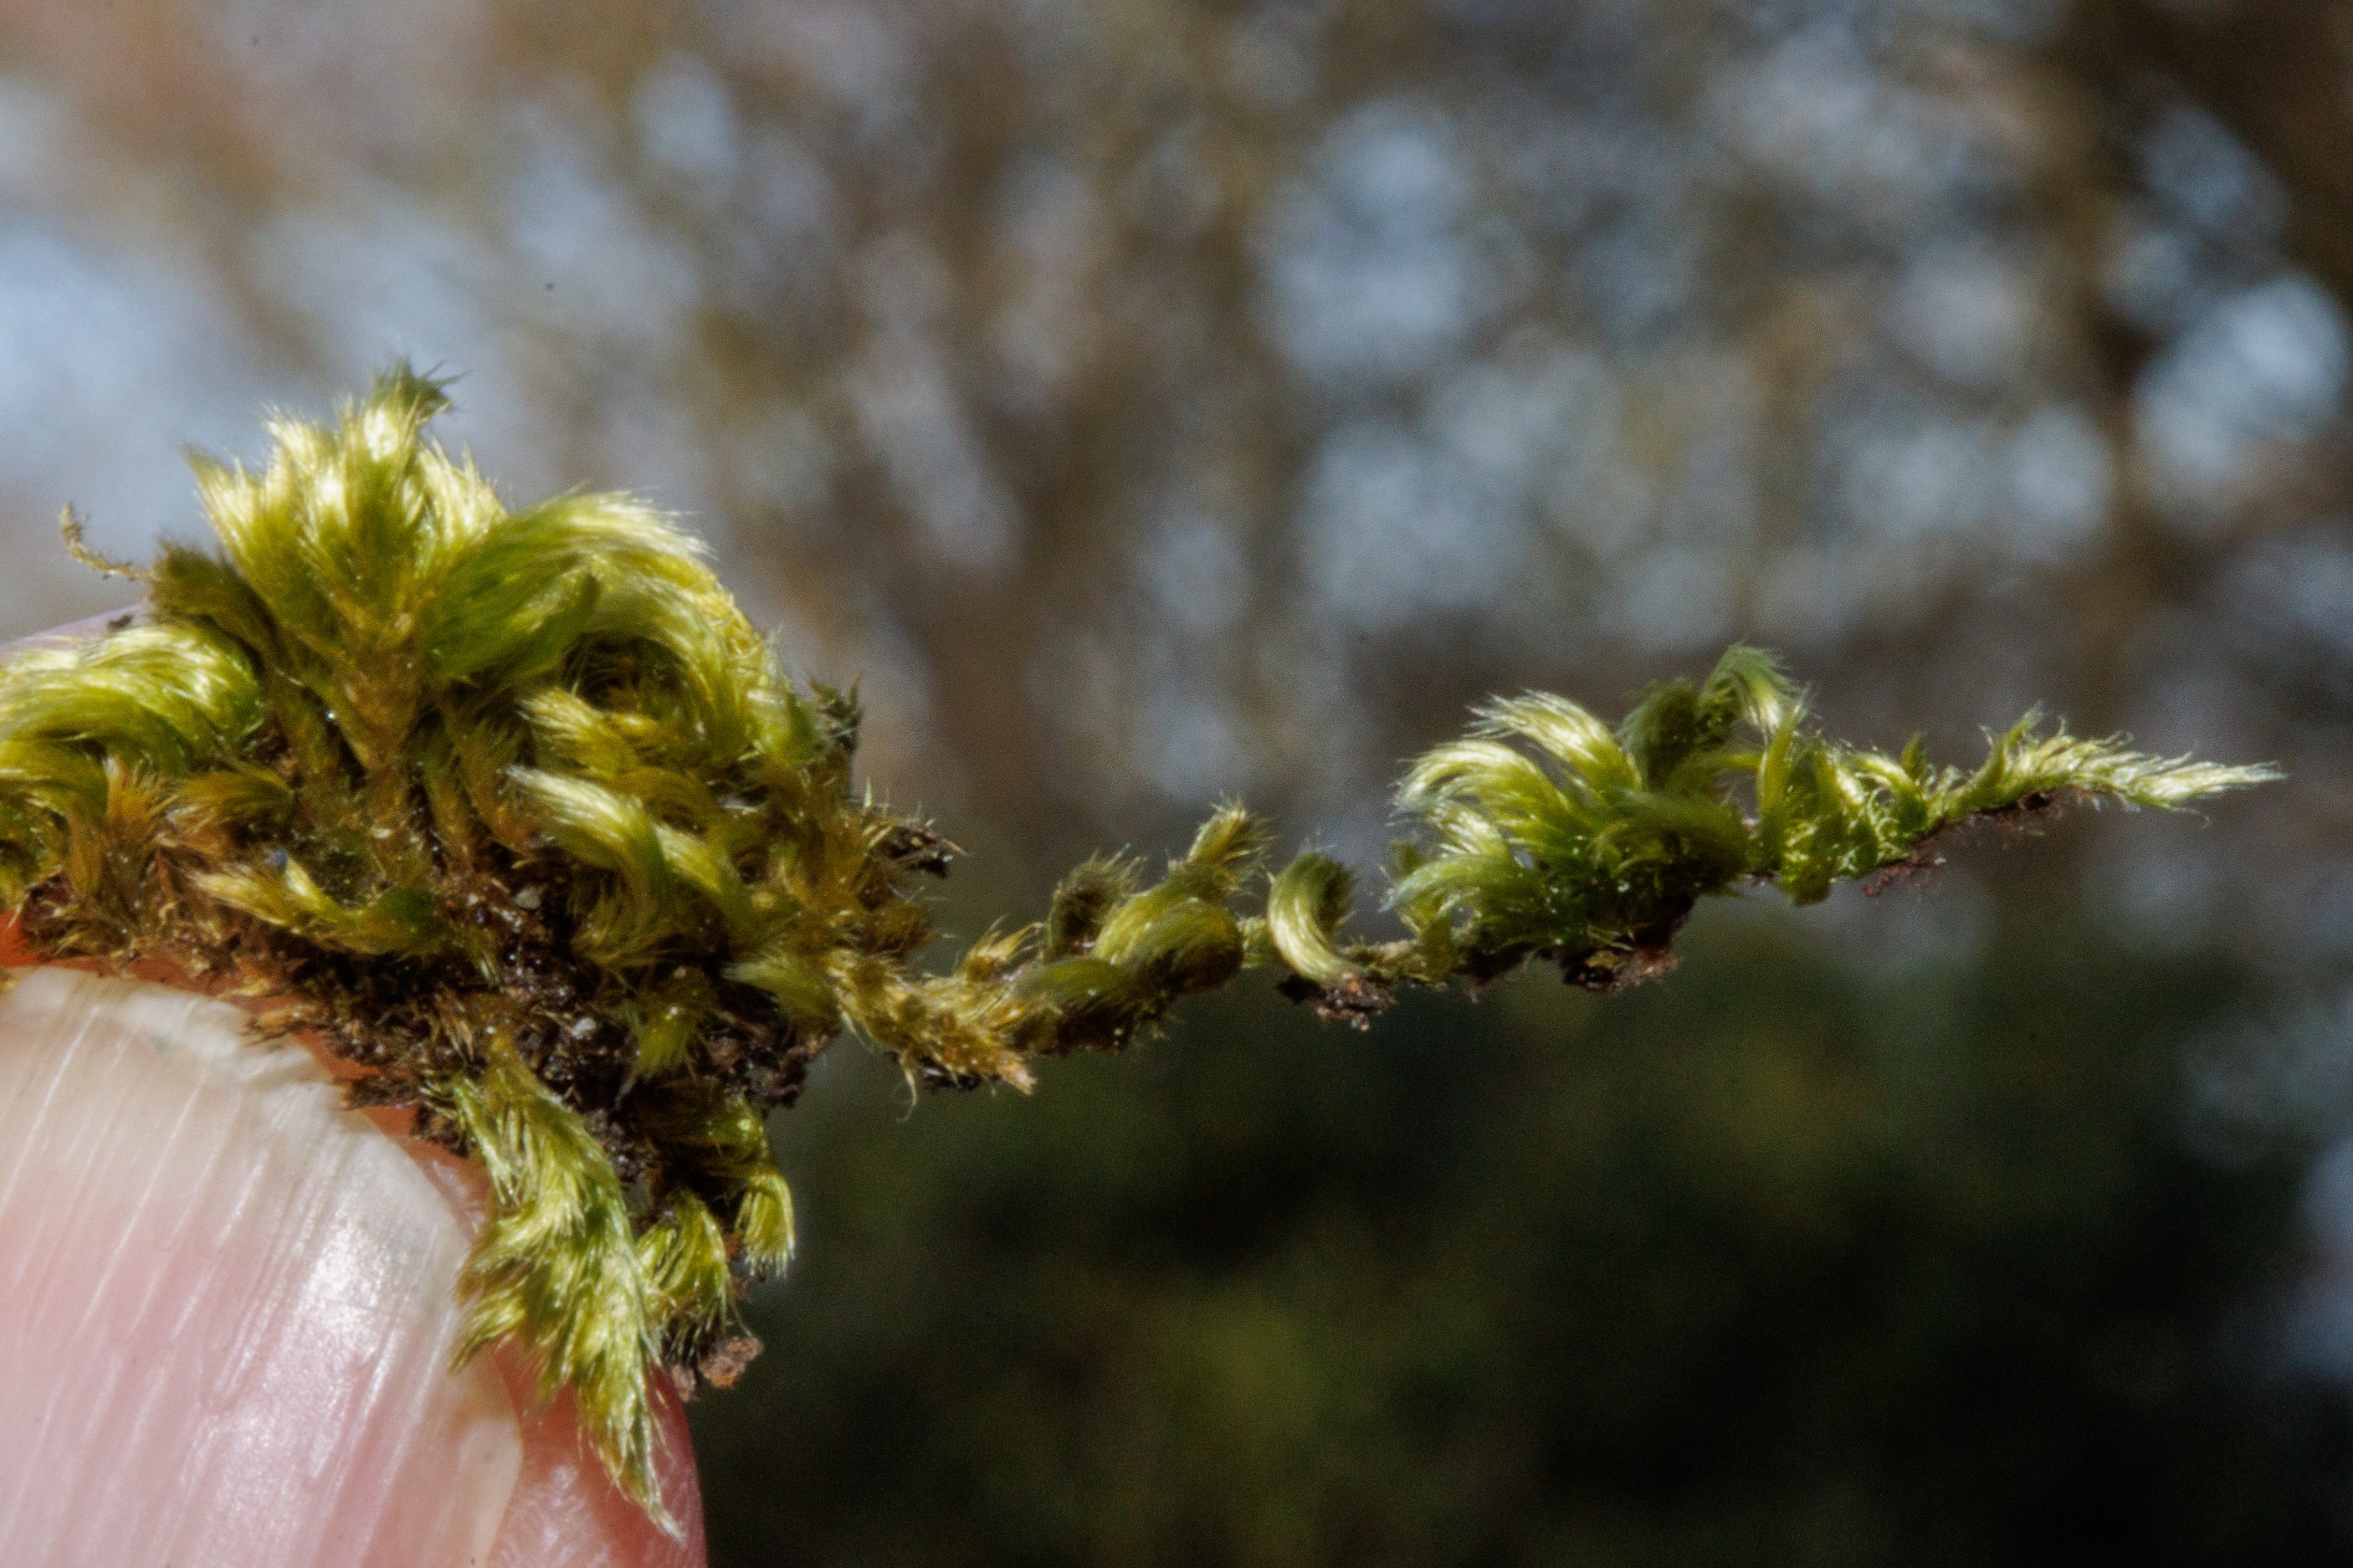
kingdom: Plantae
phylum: Bryophyta
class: Bryopsida
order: Hypnales
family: Brachytheciaceae
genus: Homalothecium
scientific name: Homalothecium sericeum
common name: Krybende silkemos
